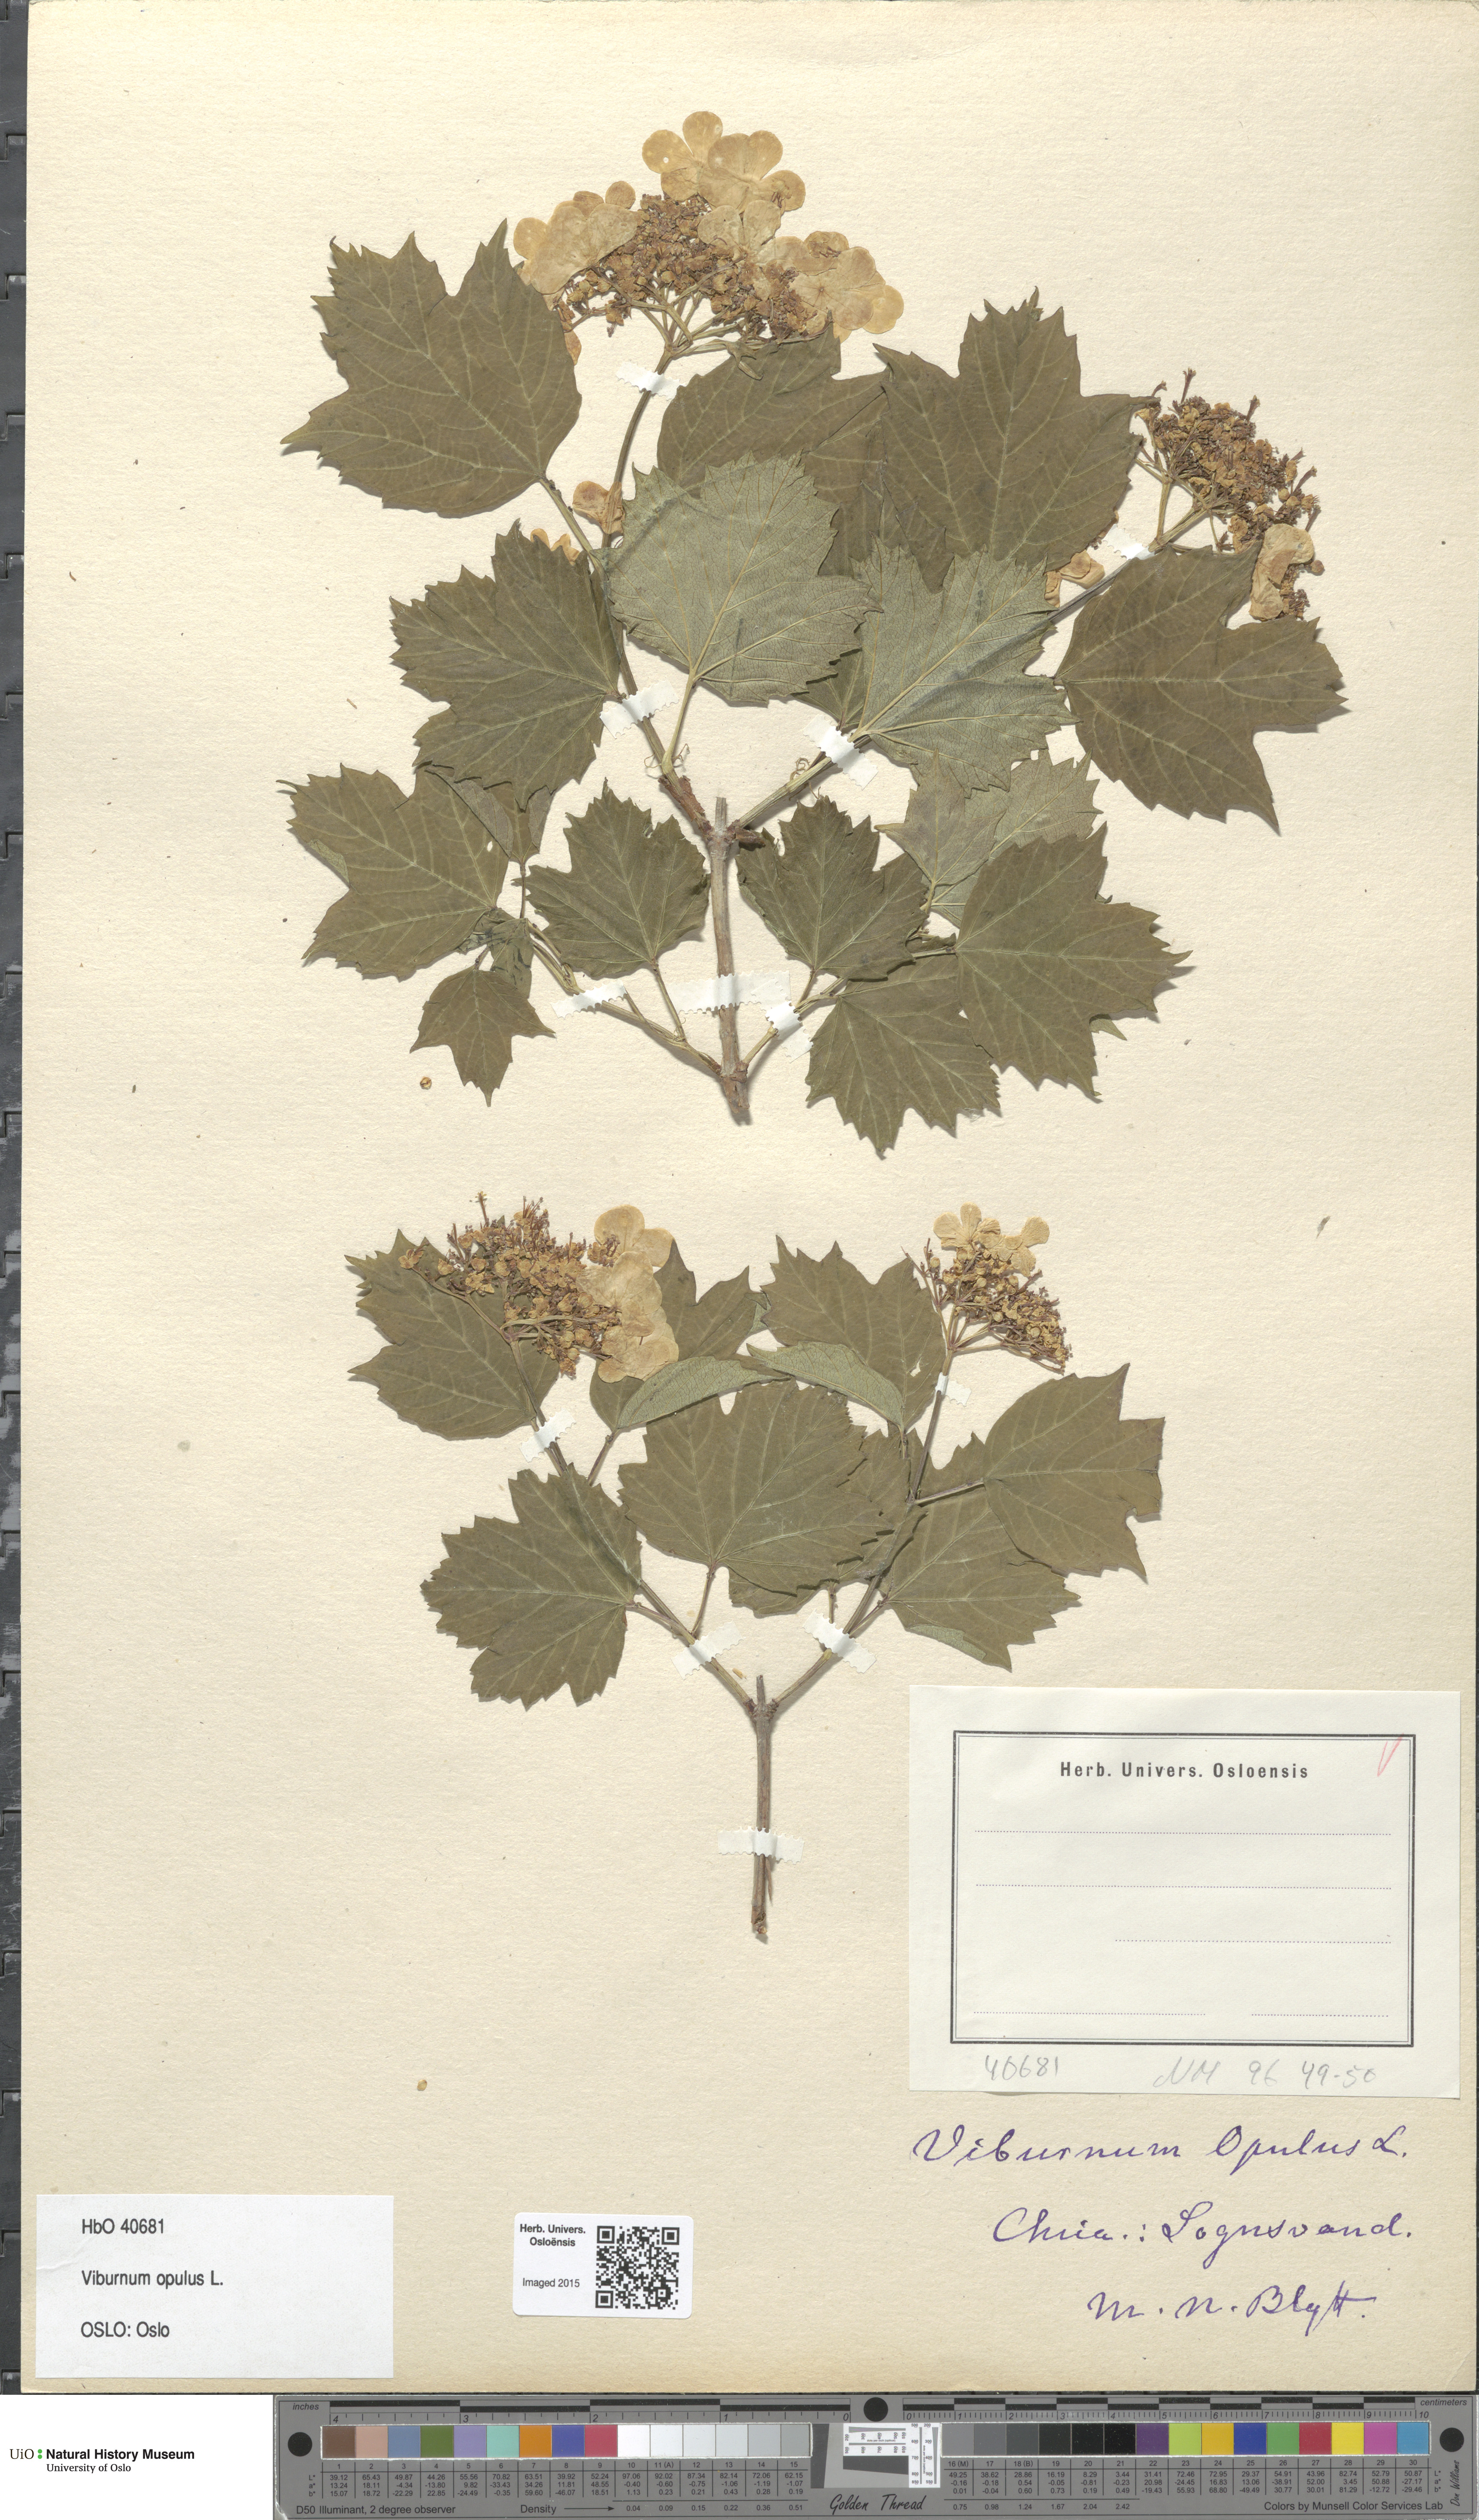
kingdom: Plantae
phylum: Tracheophyta
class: Magnoliopsida
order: Dipsacales
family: Viburnaceae
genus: Viburnum
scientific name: Viburnum opulus
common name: Guelder-rose
